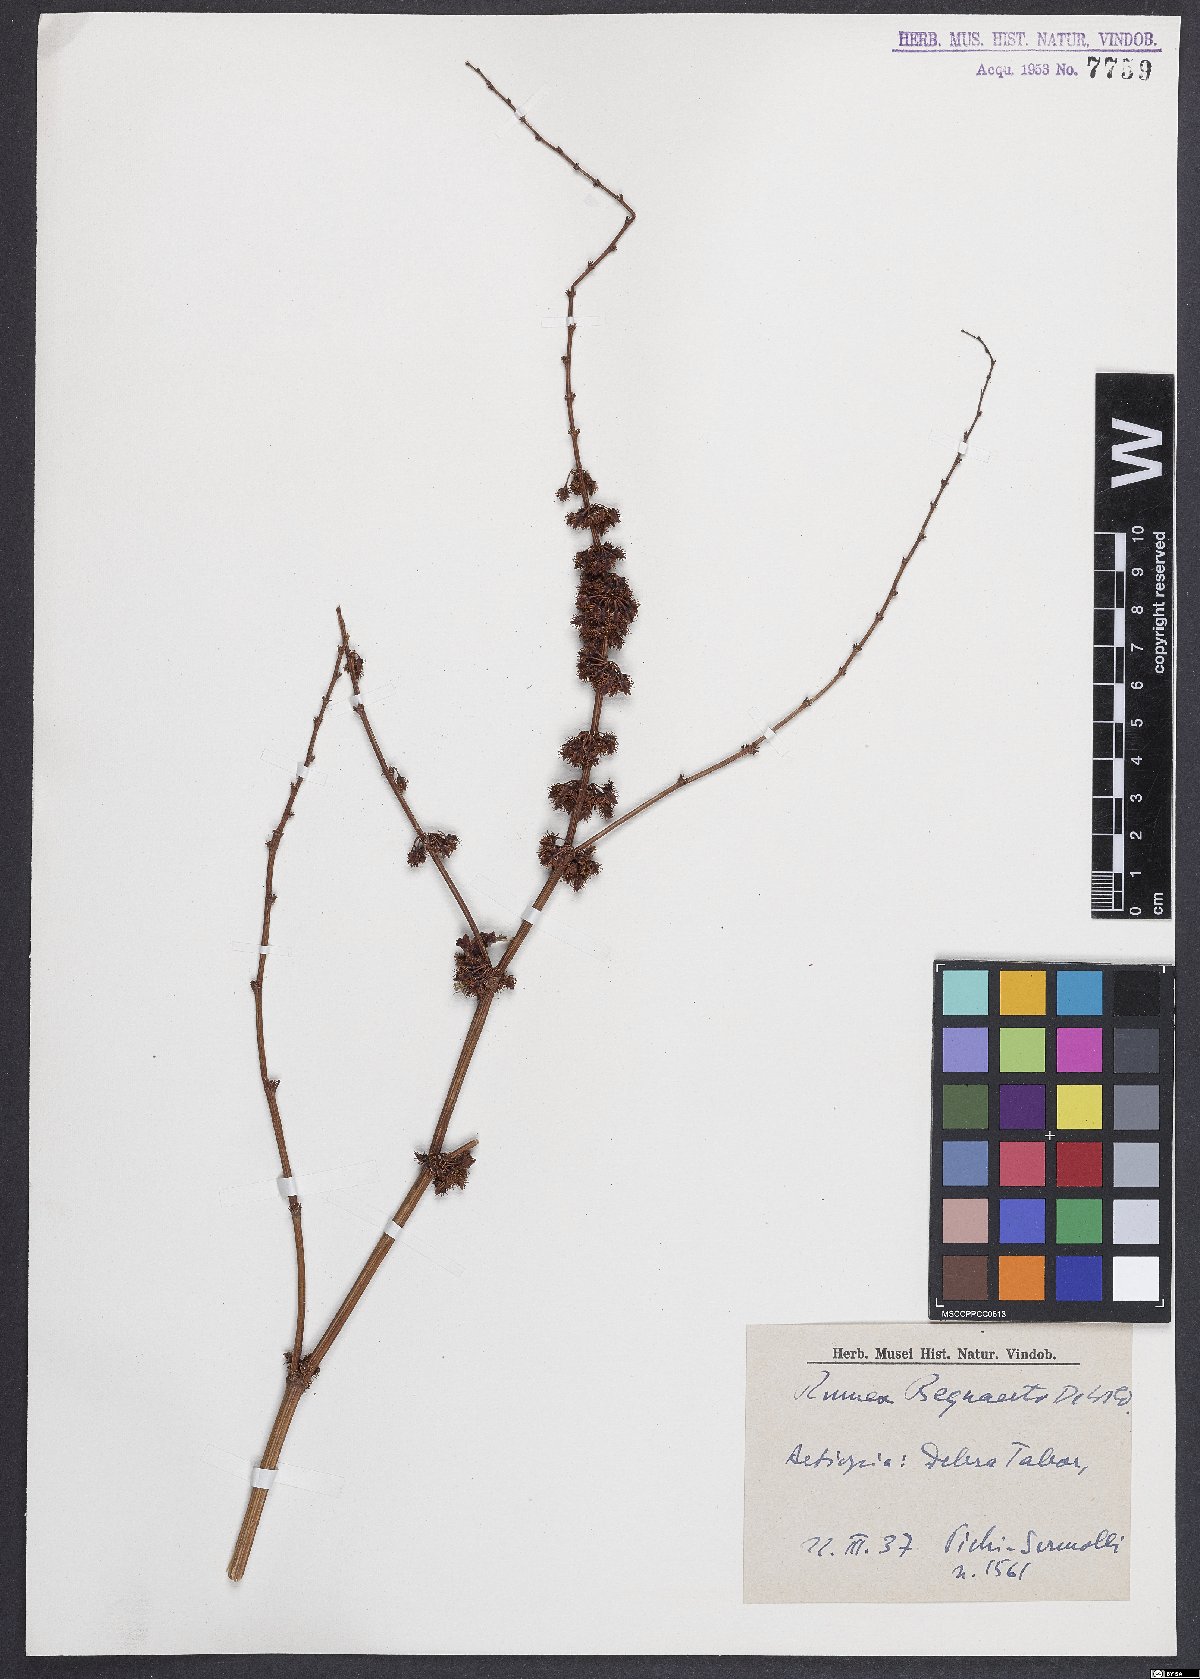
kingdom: Plantae
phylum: Tracheophyta
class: Magnoliopsida
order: Caryophyllales
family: Polygonaceae
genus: Rumex
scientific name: Rumex bequaertii
